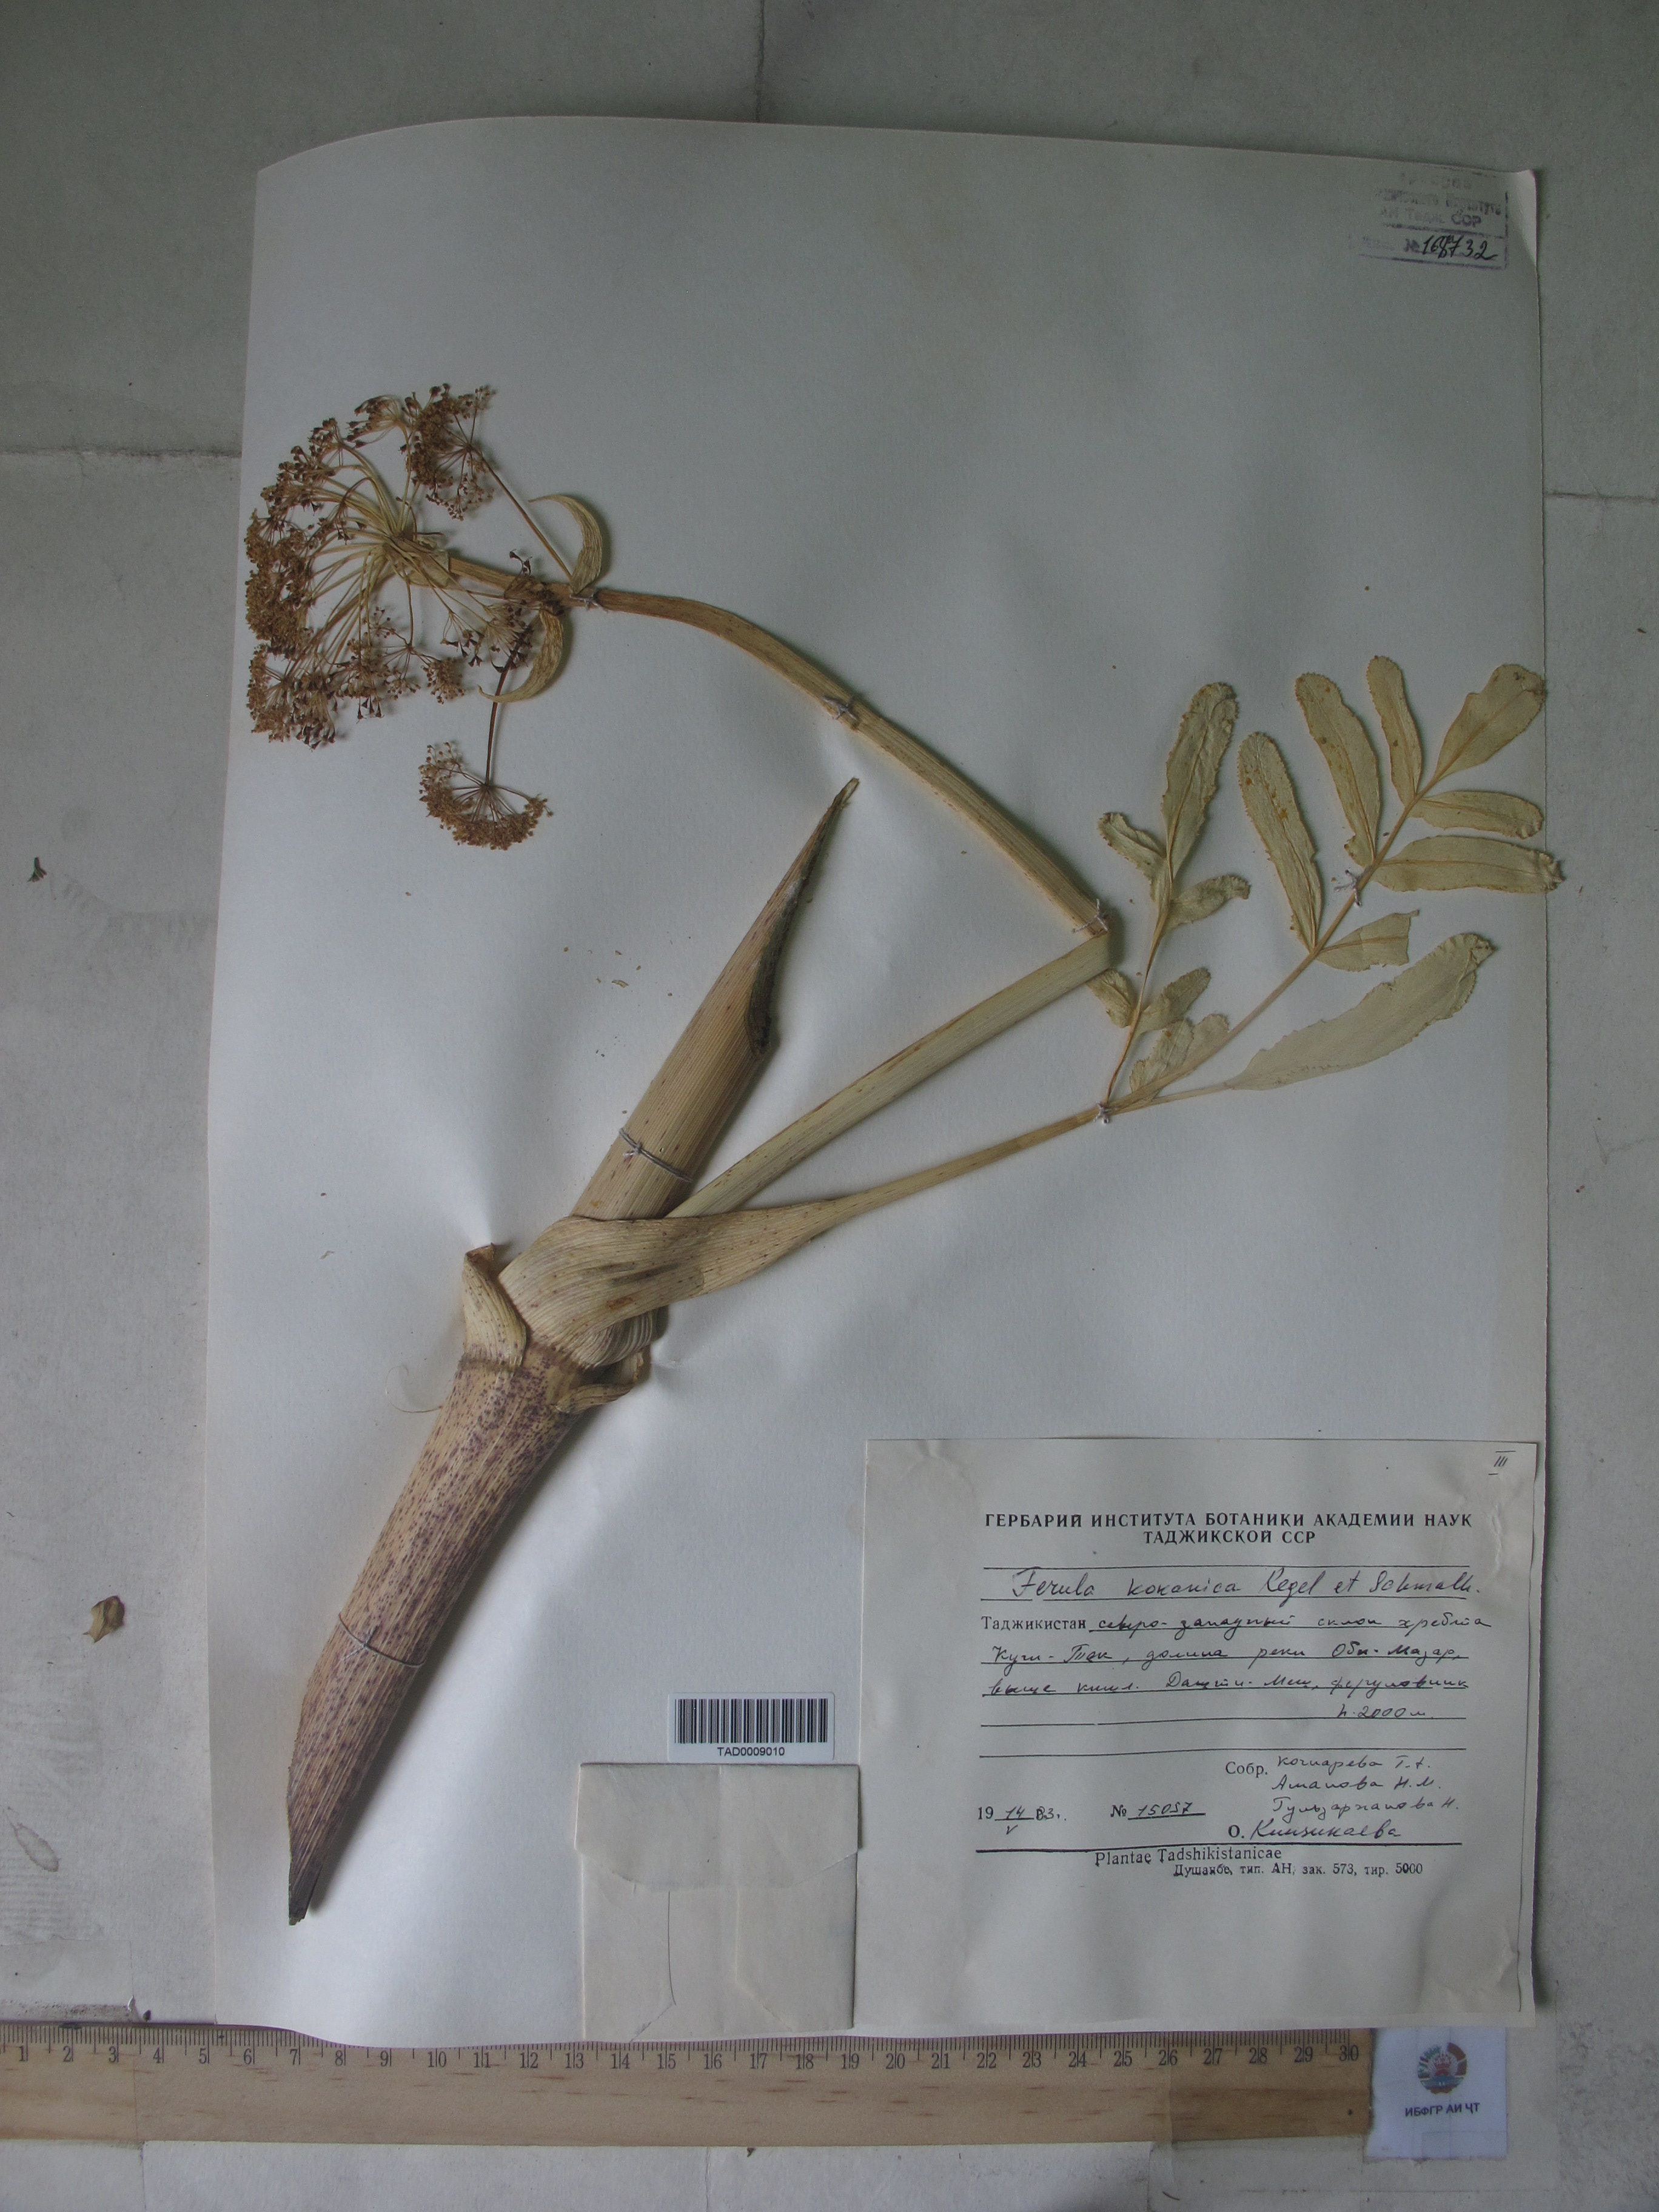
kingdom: Plantae
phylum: Tracheophyta
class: Magnoliopsida
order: Apiales
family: Apiaceae
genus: Ferula
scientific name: Ferula kokanica
